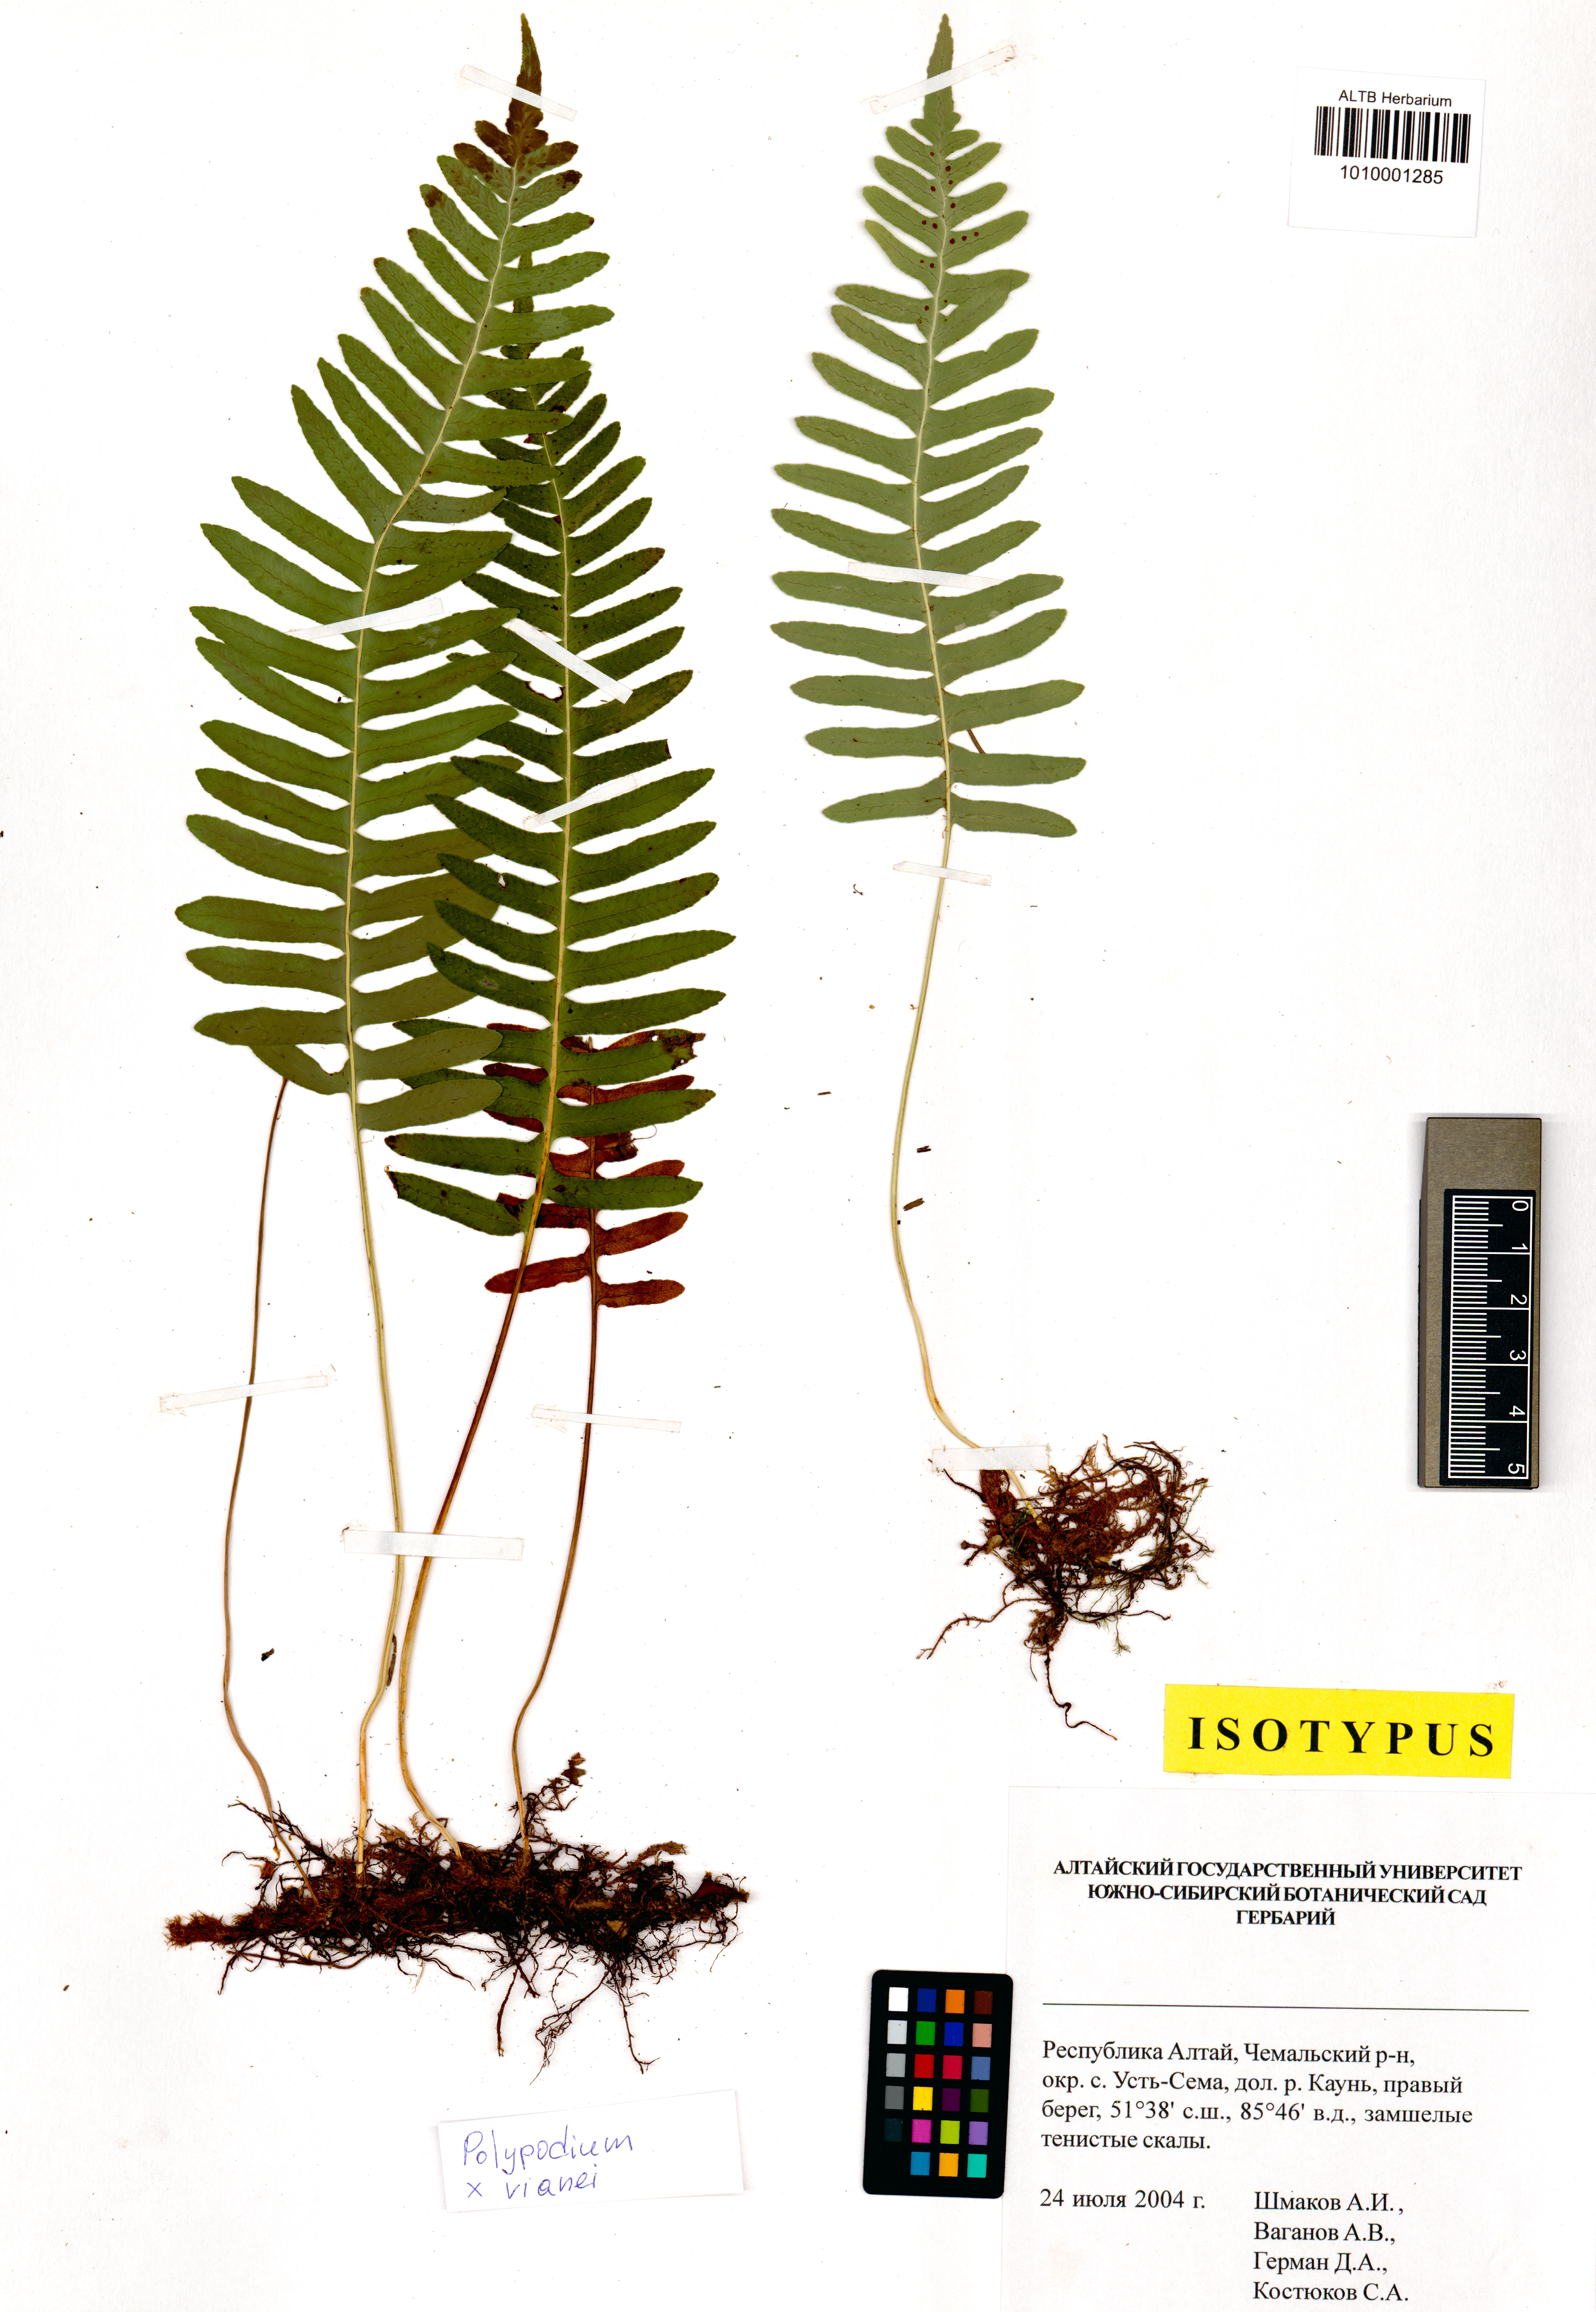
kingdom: Plantae
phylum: Tracheophyta
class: Polypodiopsida
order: Polypodiales
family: Polypodiaceae
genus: Polypodium
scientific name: Polypodium vianei
